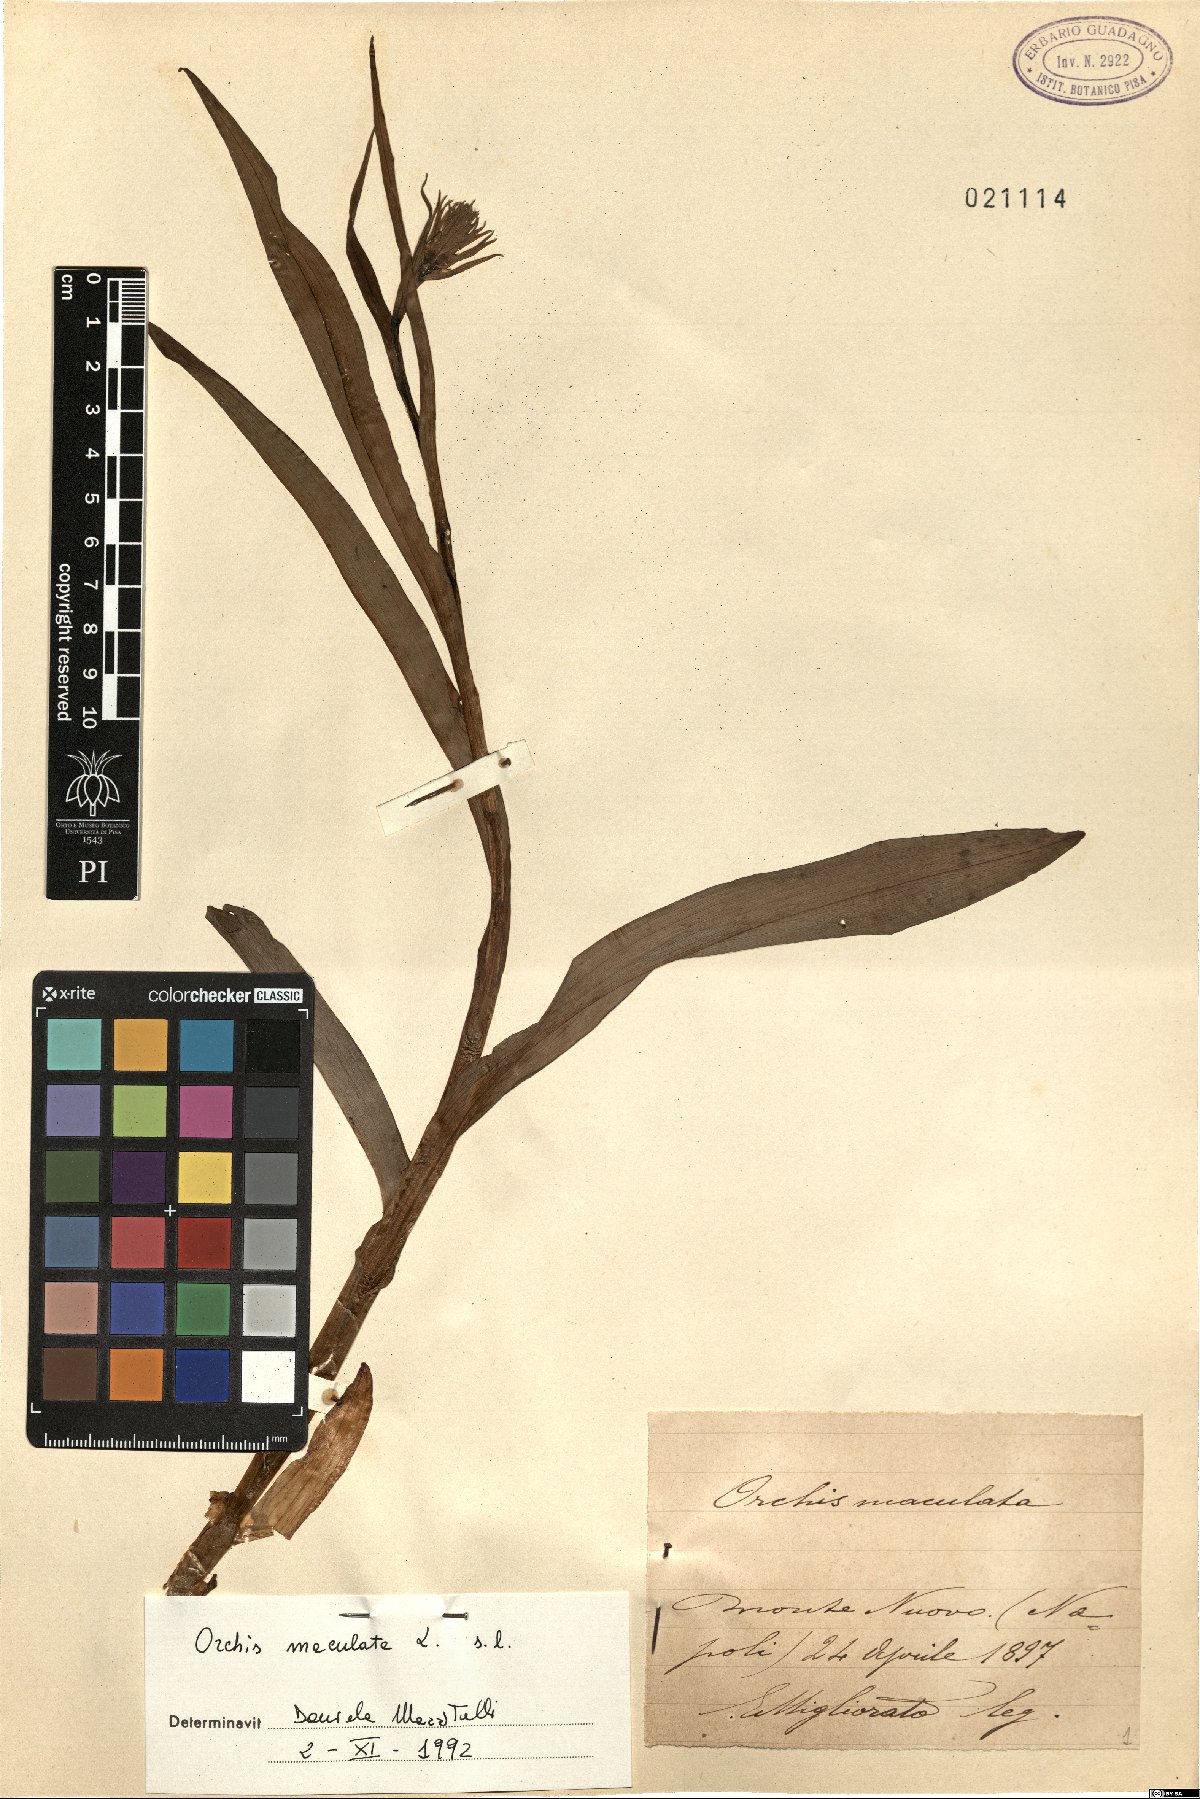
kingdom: Plantae
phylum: Tracheophyta
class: Liliopsida
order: Asparagales
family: Orchidaceae
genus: Dactylorhiza
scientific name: Dactylorhiza maculata
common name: Heath spotted-orchid
